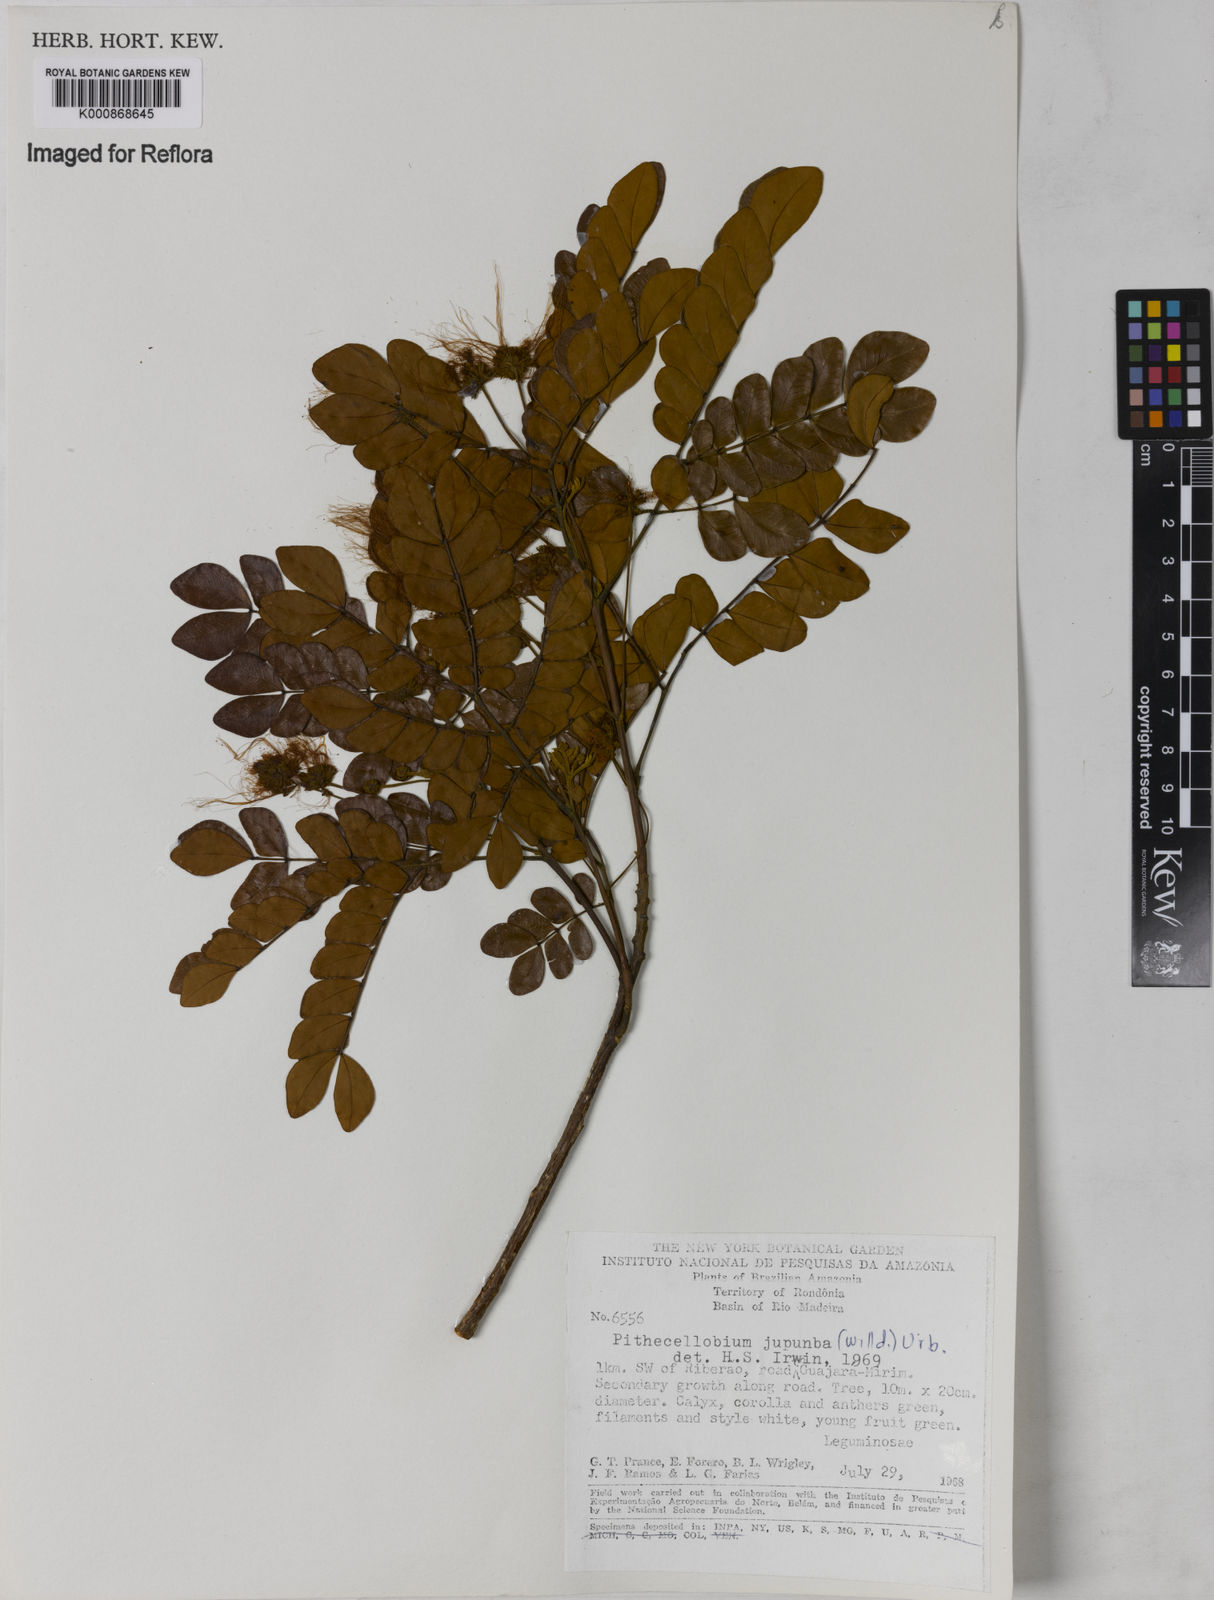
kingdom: Plantae
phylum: Tracheophyta
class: Magnoliopsida
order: Fabales
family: Fabaceae
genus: Jupunba
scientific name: Jupunba trapezifolia
